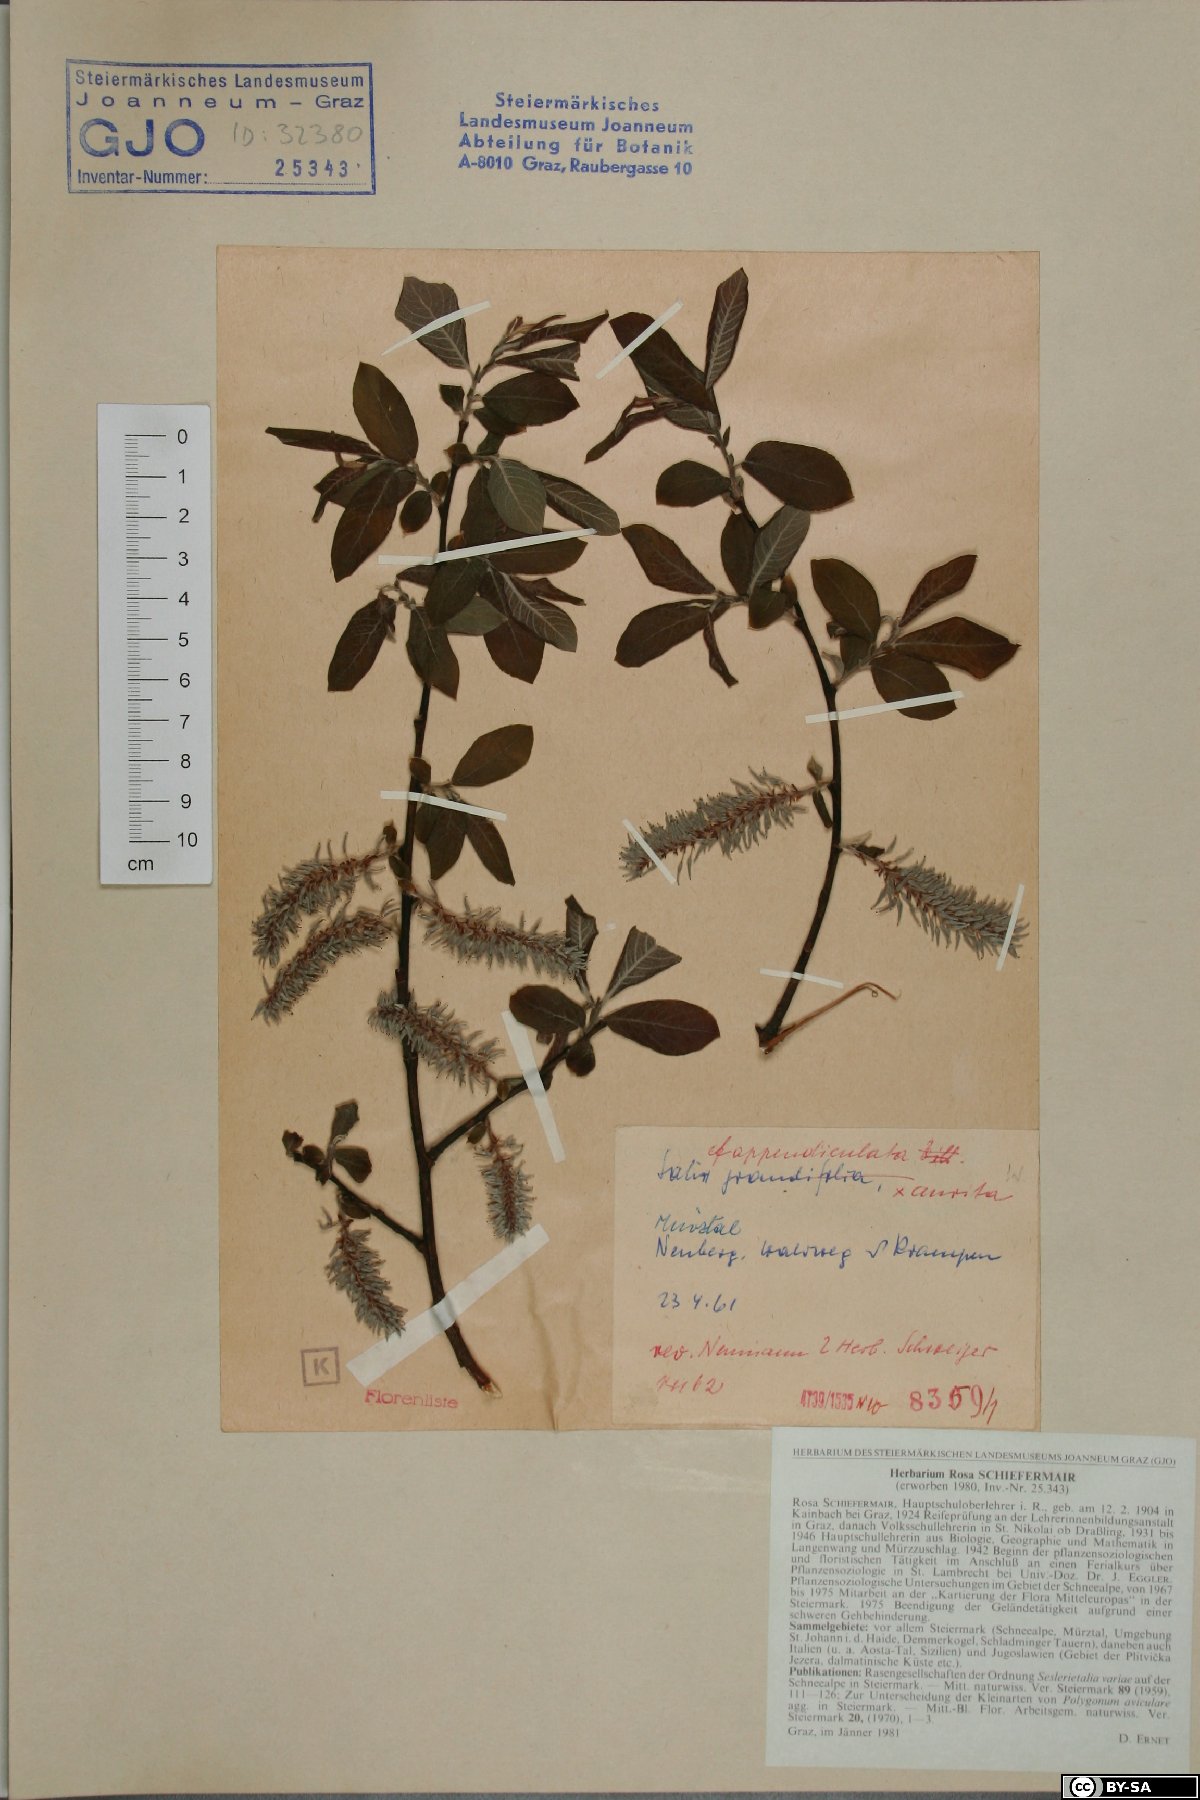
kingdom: Plantae
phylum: Tracheophyta
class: Magnoliopsida
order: Malpighiales
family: Salicaceae
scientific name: Salicaceae
